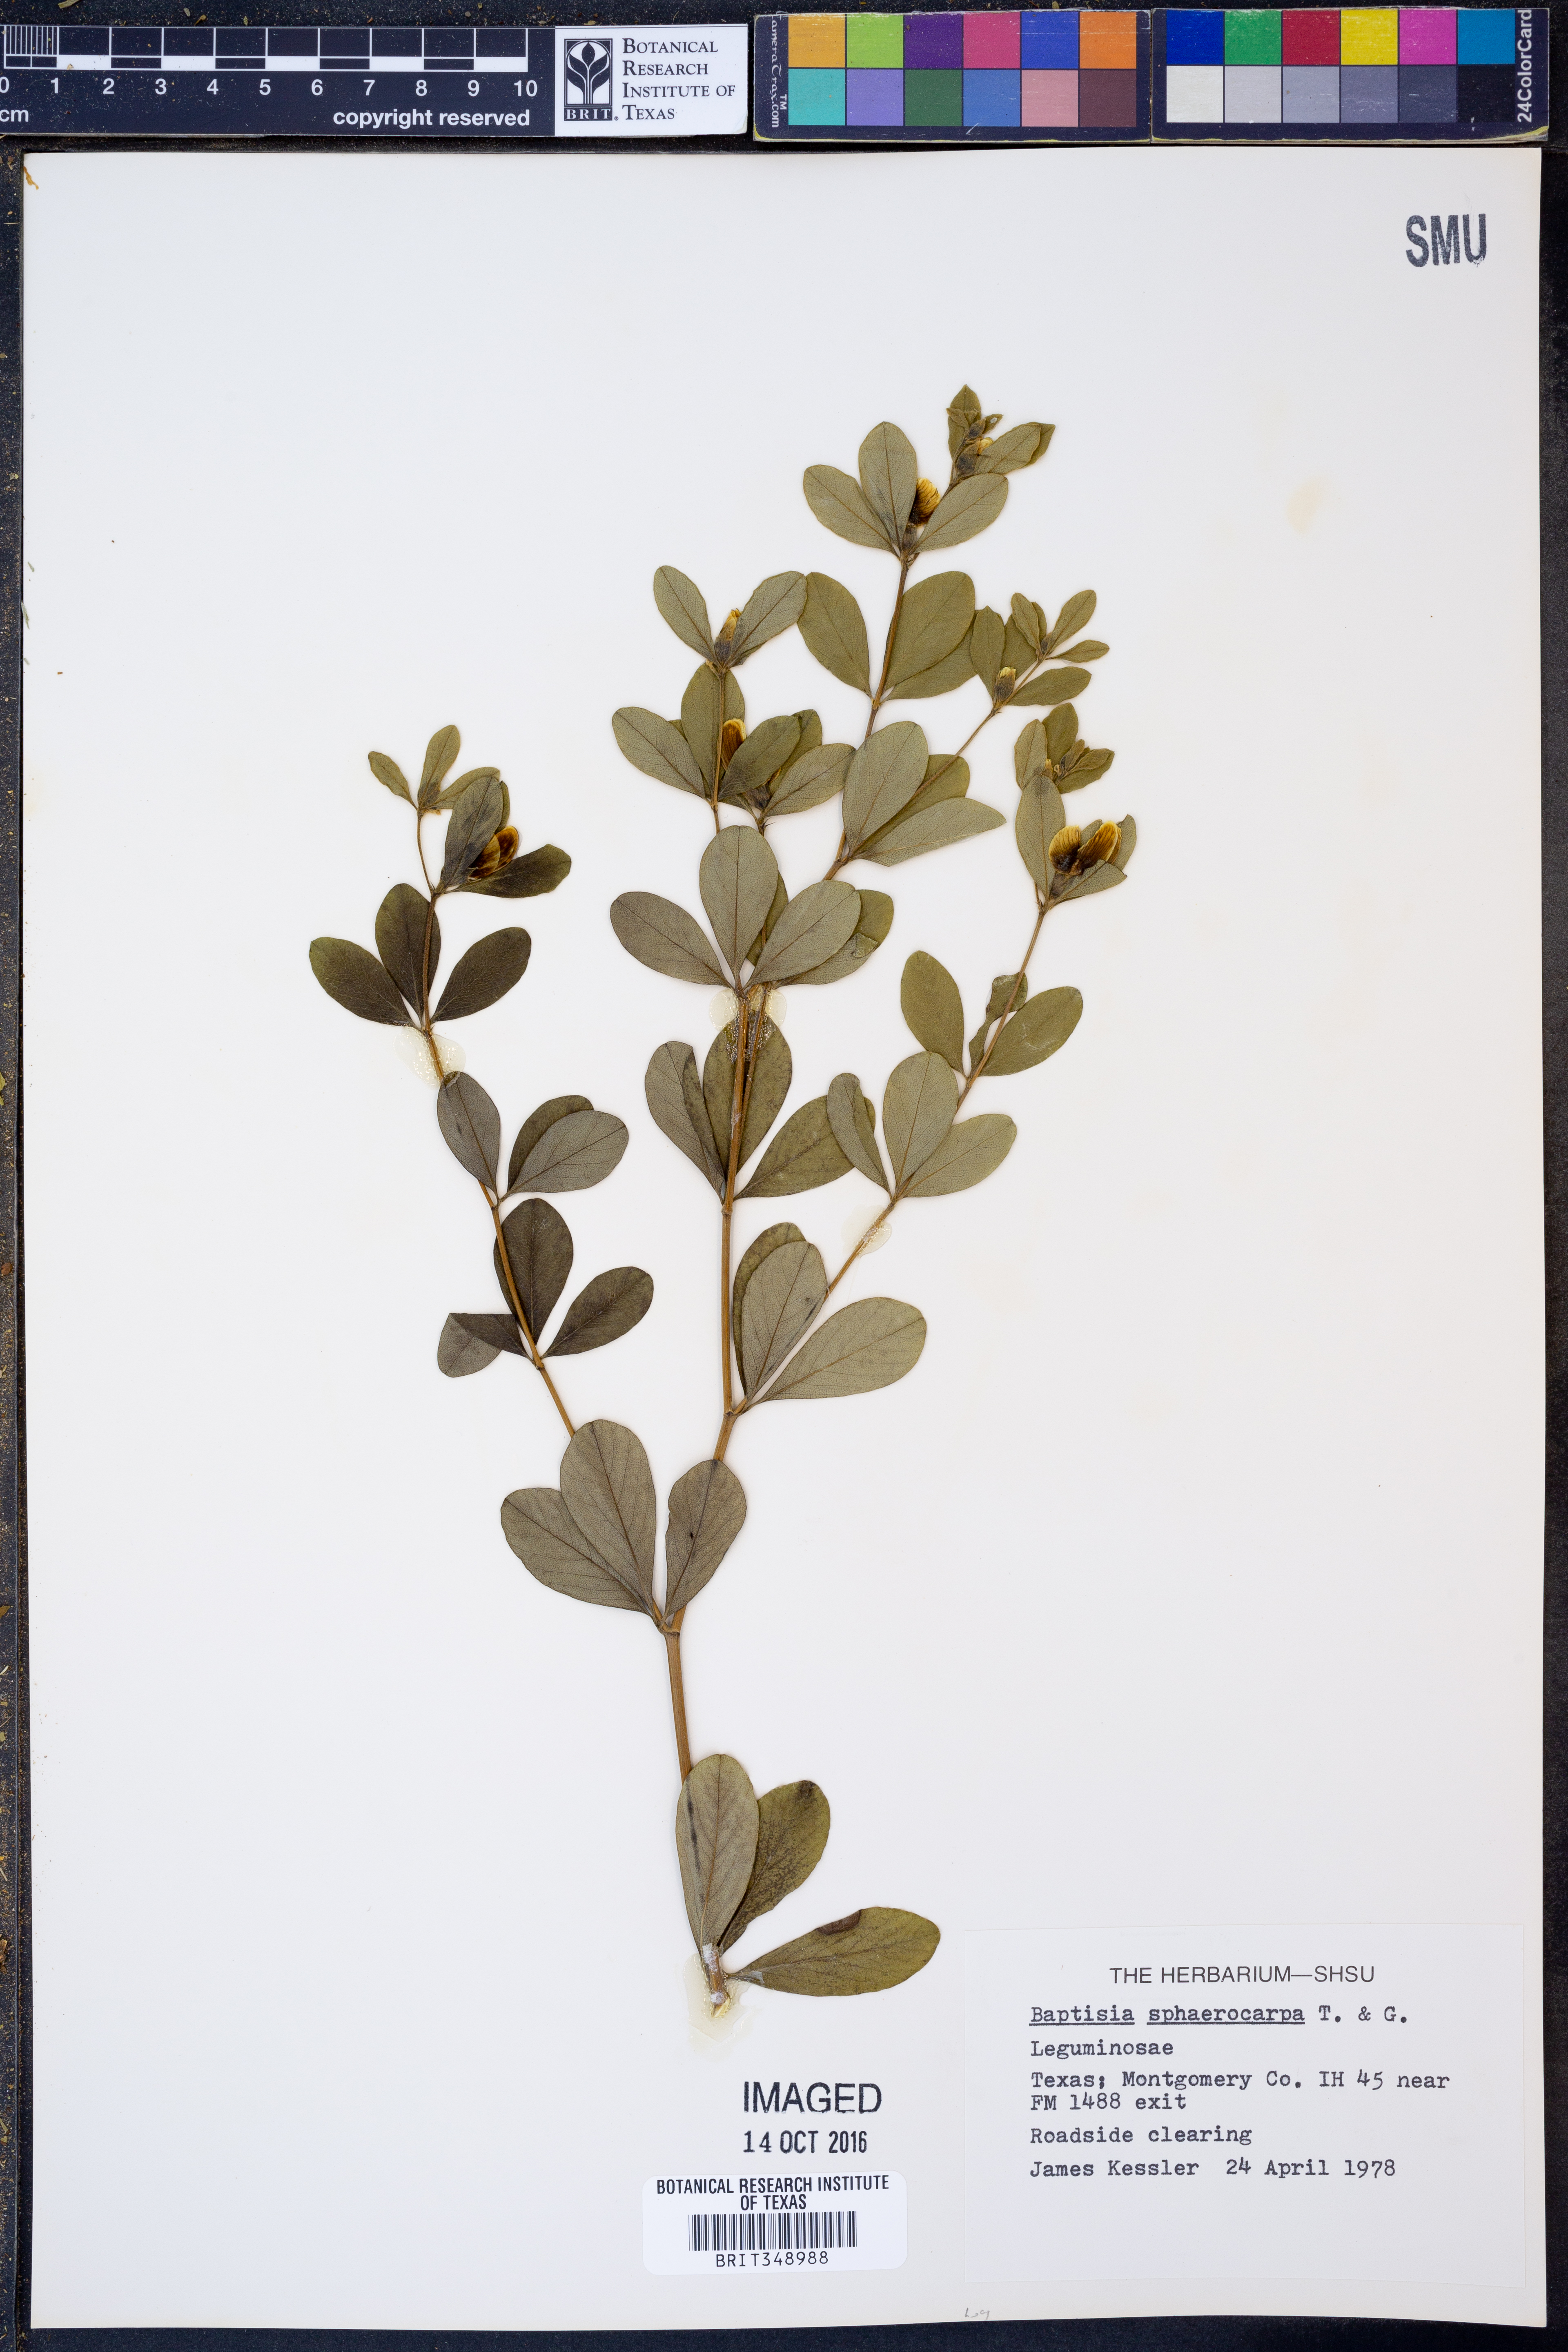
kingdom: Plantae
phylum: Tracheophyta
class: Magnoliopsida
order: Fabales
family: Fabaceae
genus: Baptisia
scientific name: Baptisia sphaerocarpa
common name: Round wild indigo
